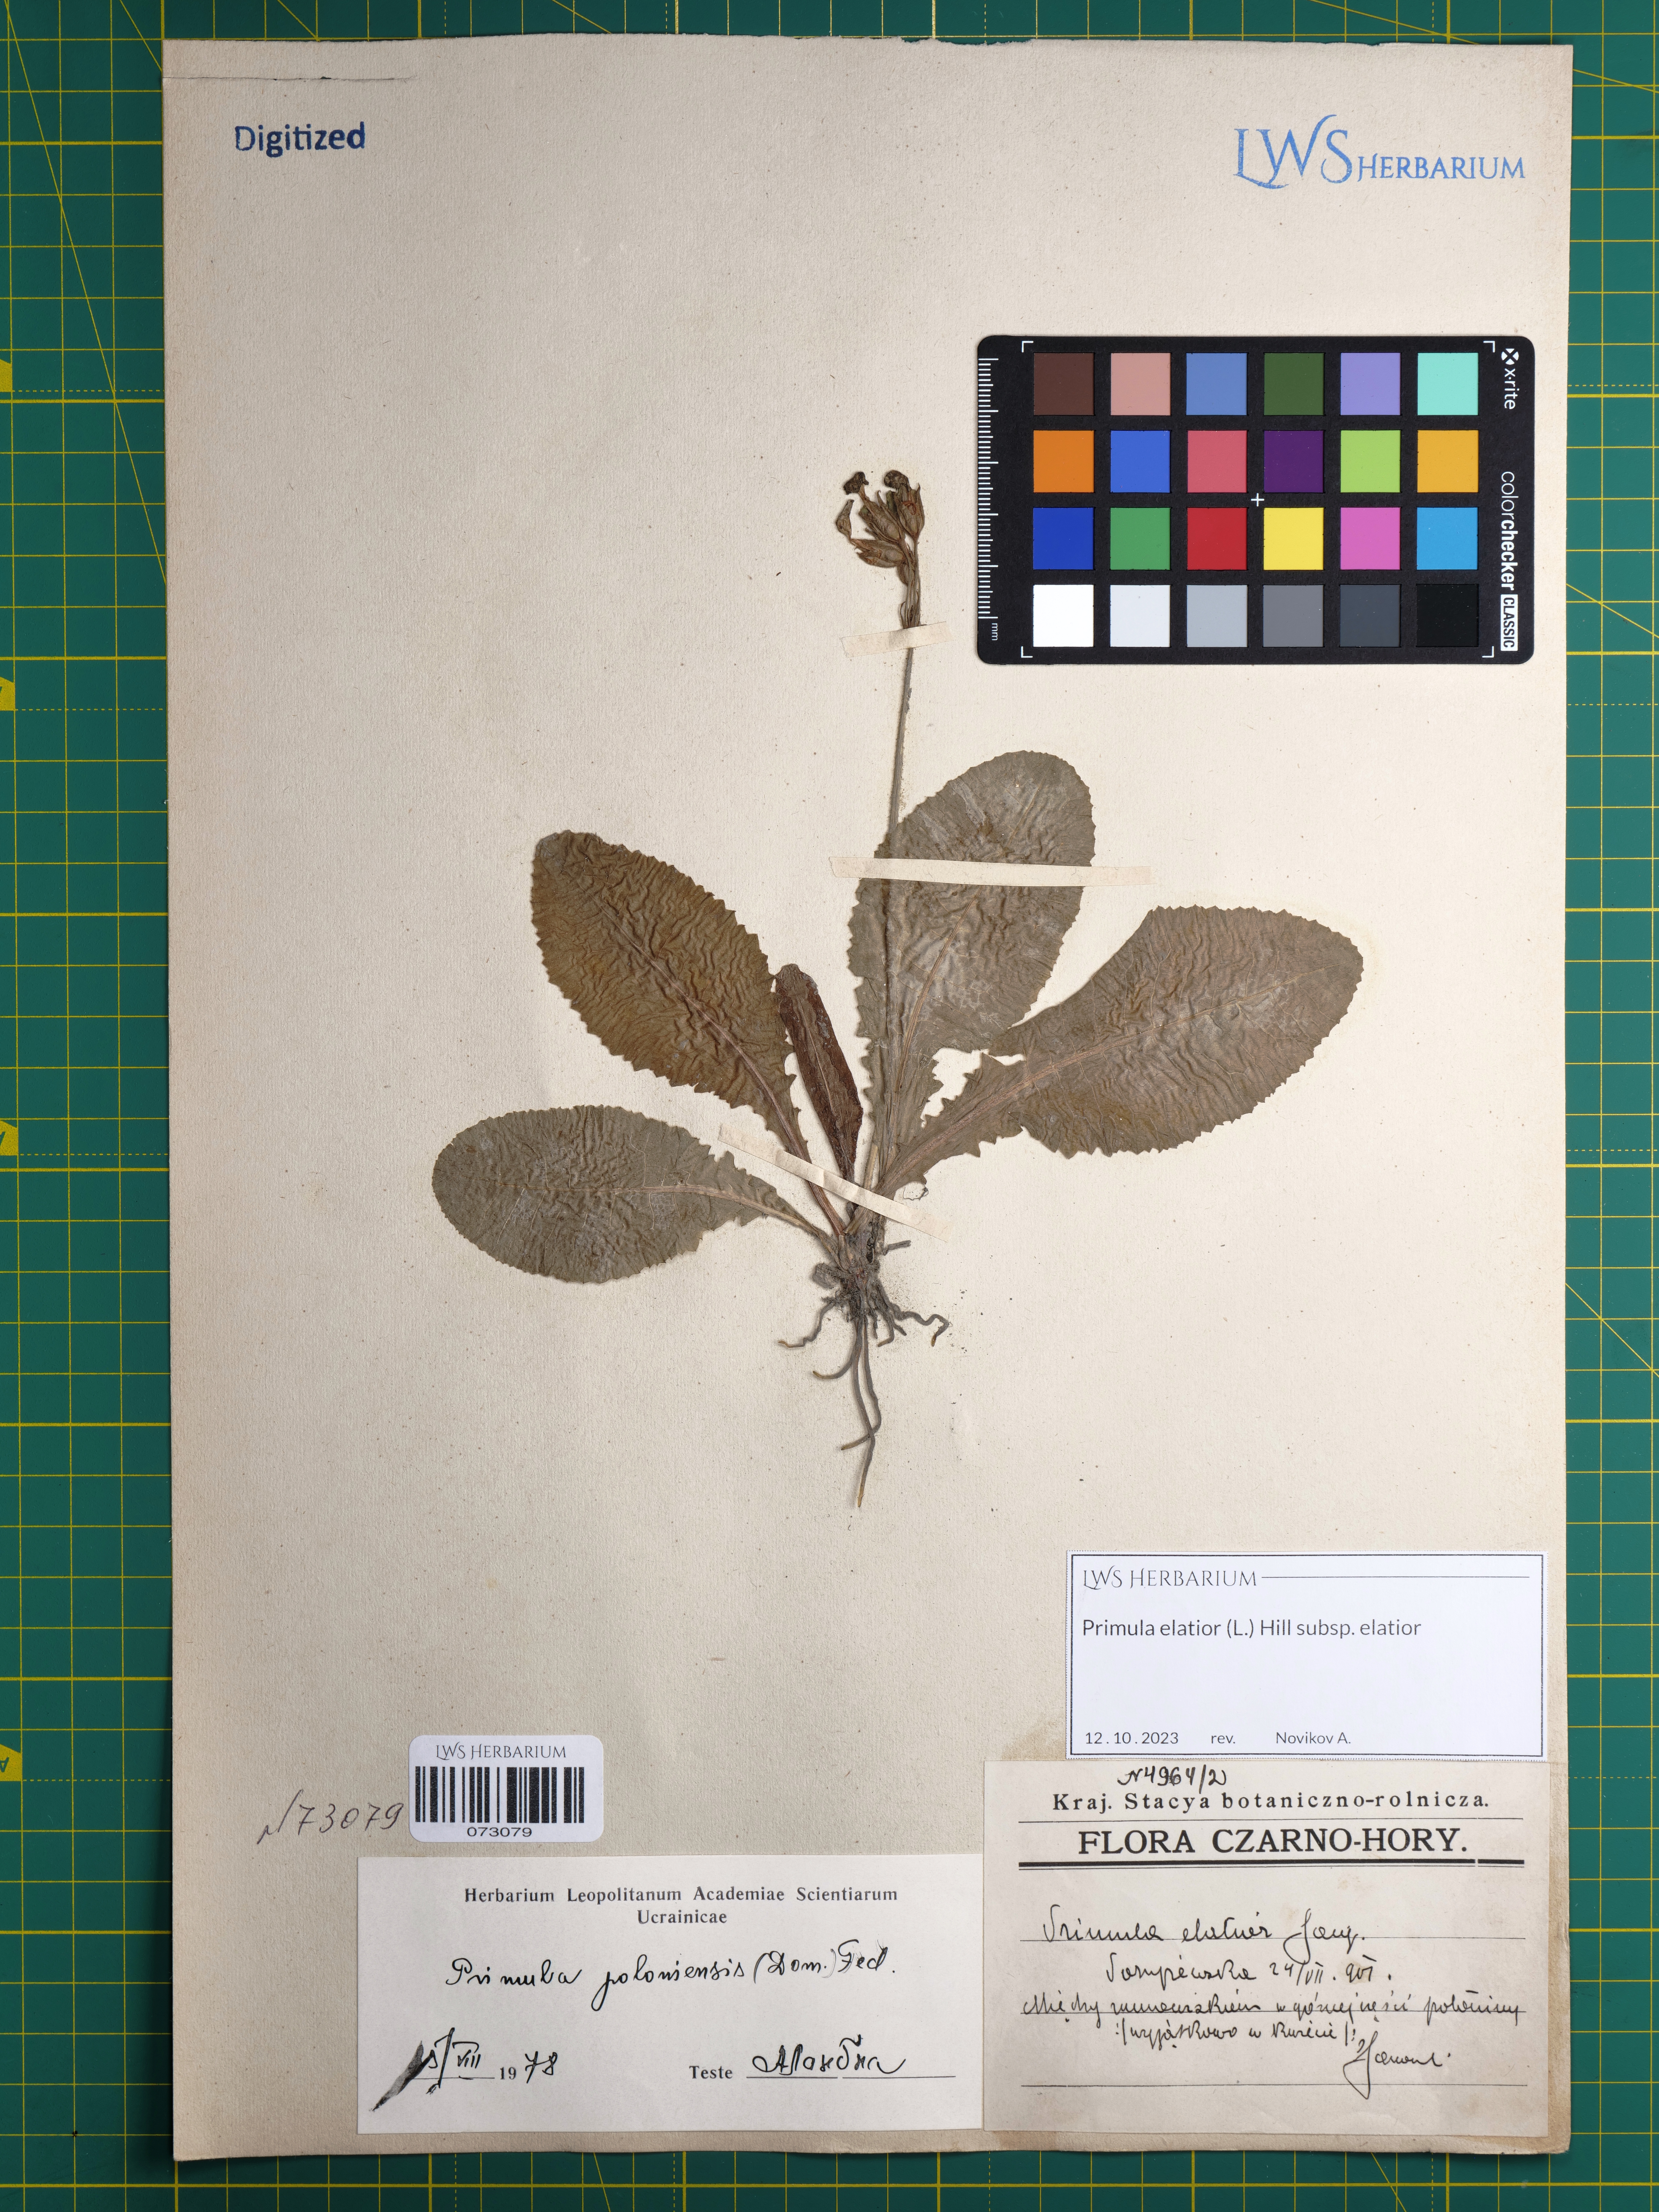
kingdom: Plantae
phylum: Tracheophyta
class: Magnoliopsida
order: Ericales
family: Primulaceae
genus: Primula
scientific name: Primula elatior
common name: Oxlip
